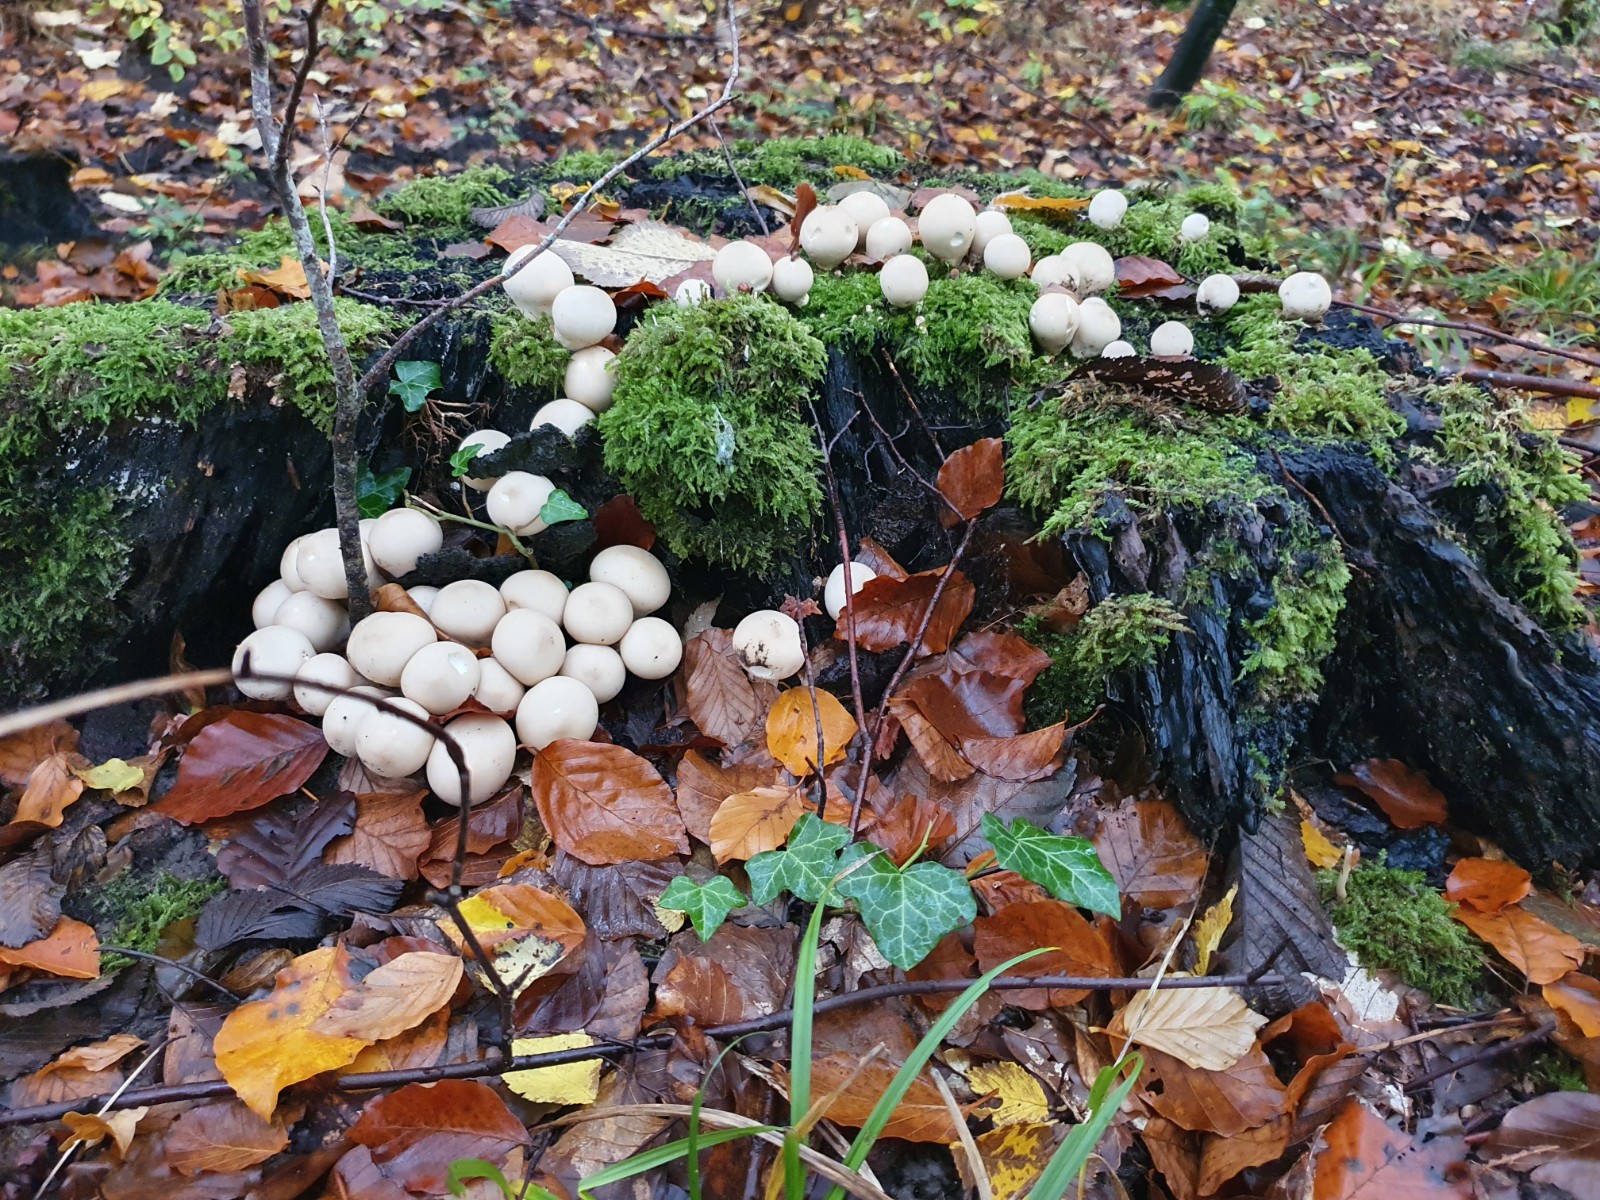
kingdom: Fungi
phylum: Basidiomycota
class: Agaricomycetes
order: Agaricales
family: Lycoperdaceae
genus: Apioperdon
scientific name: Apioperdon pyriforme
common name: pære-støvbold
